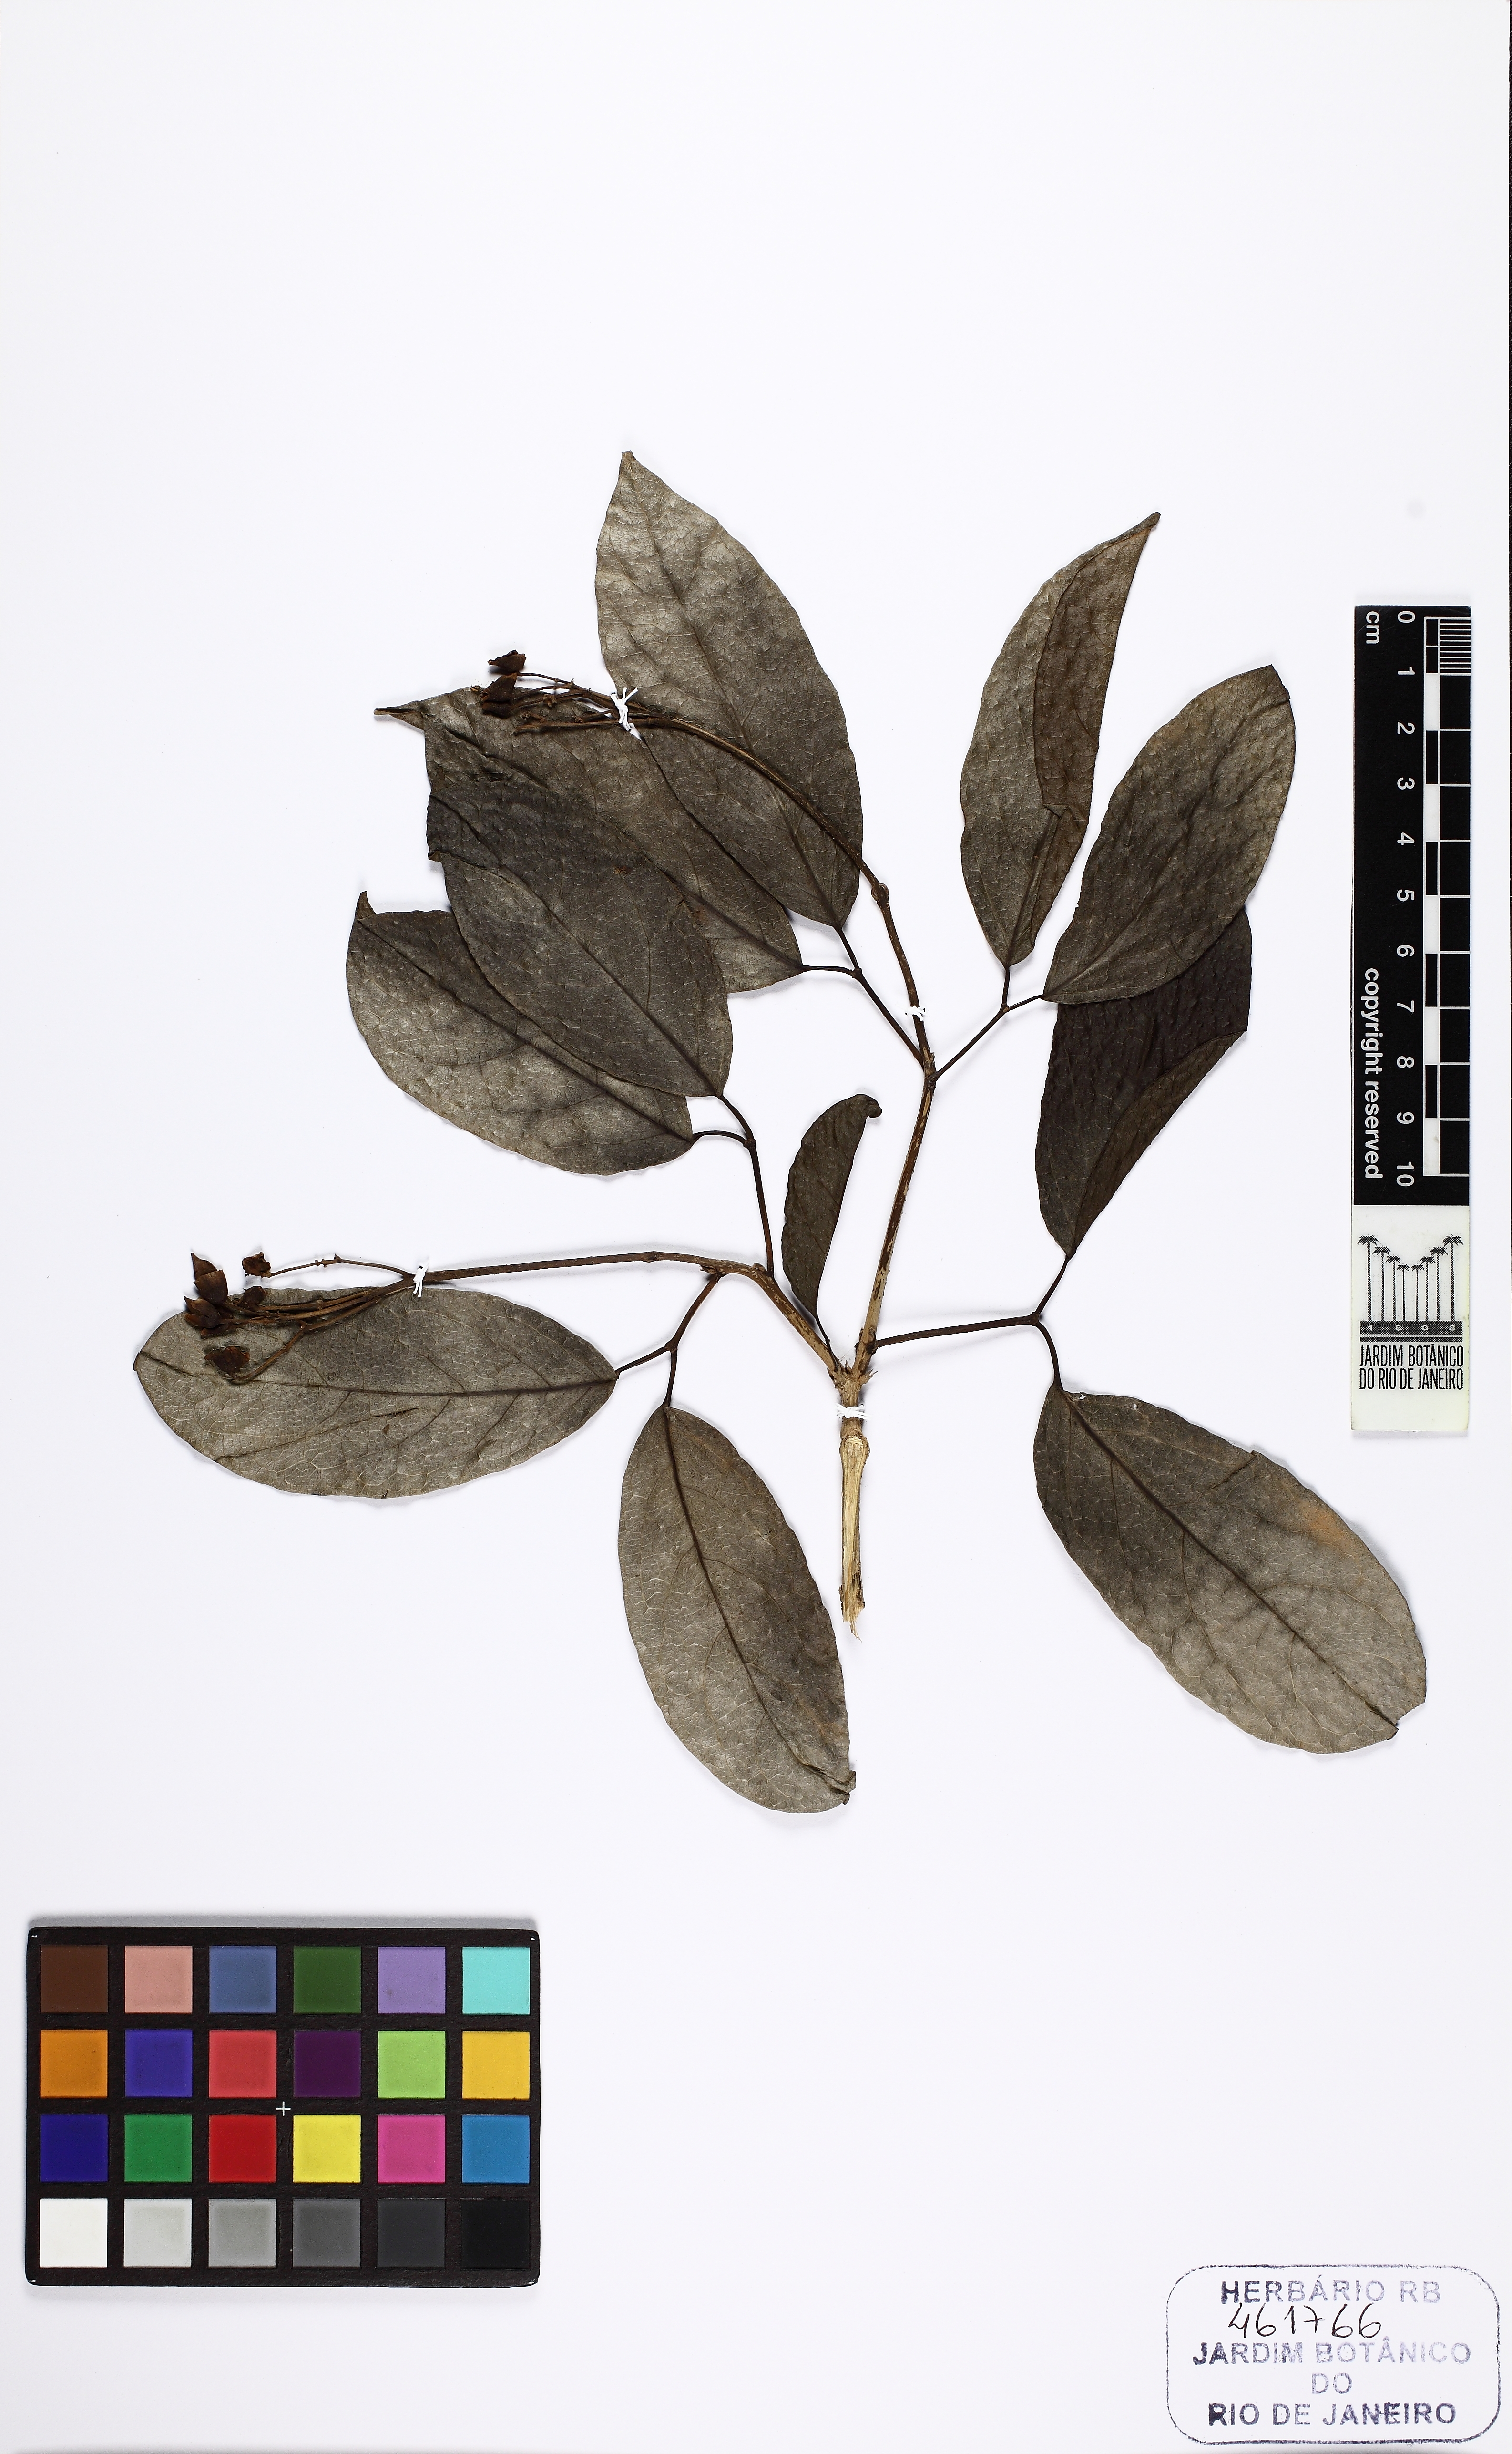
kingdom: Plantae
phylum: Tracheophyta
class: Magnoliopsida
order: Lamiales
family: Bignoniaceae
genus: Tanaecium
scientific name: Tanaecium pyramidatum
